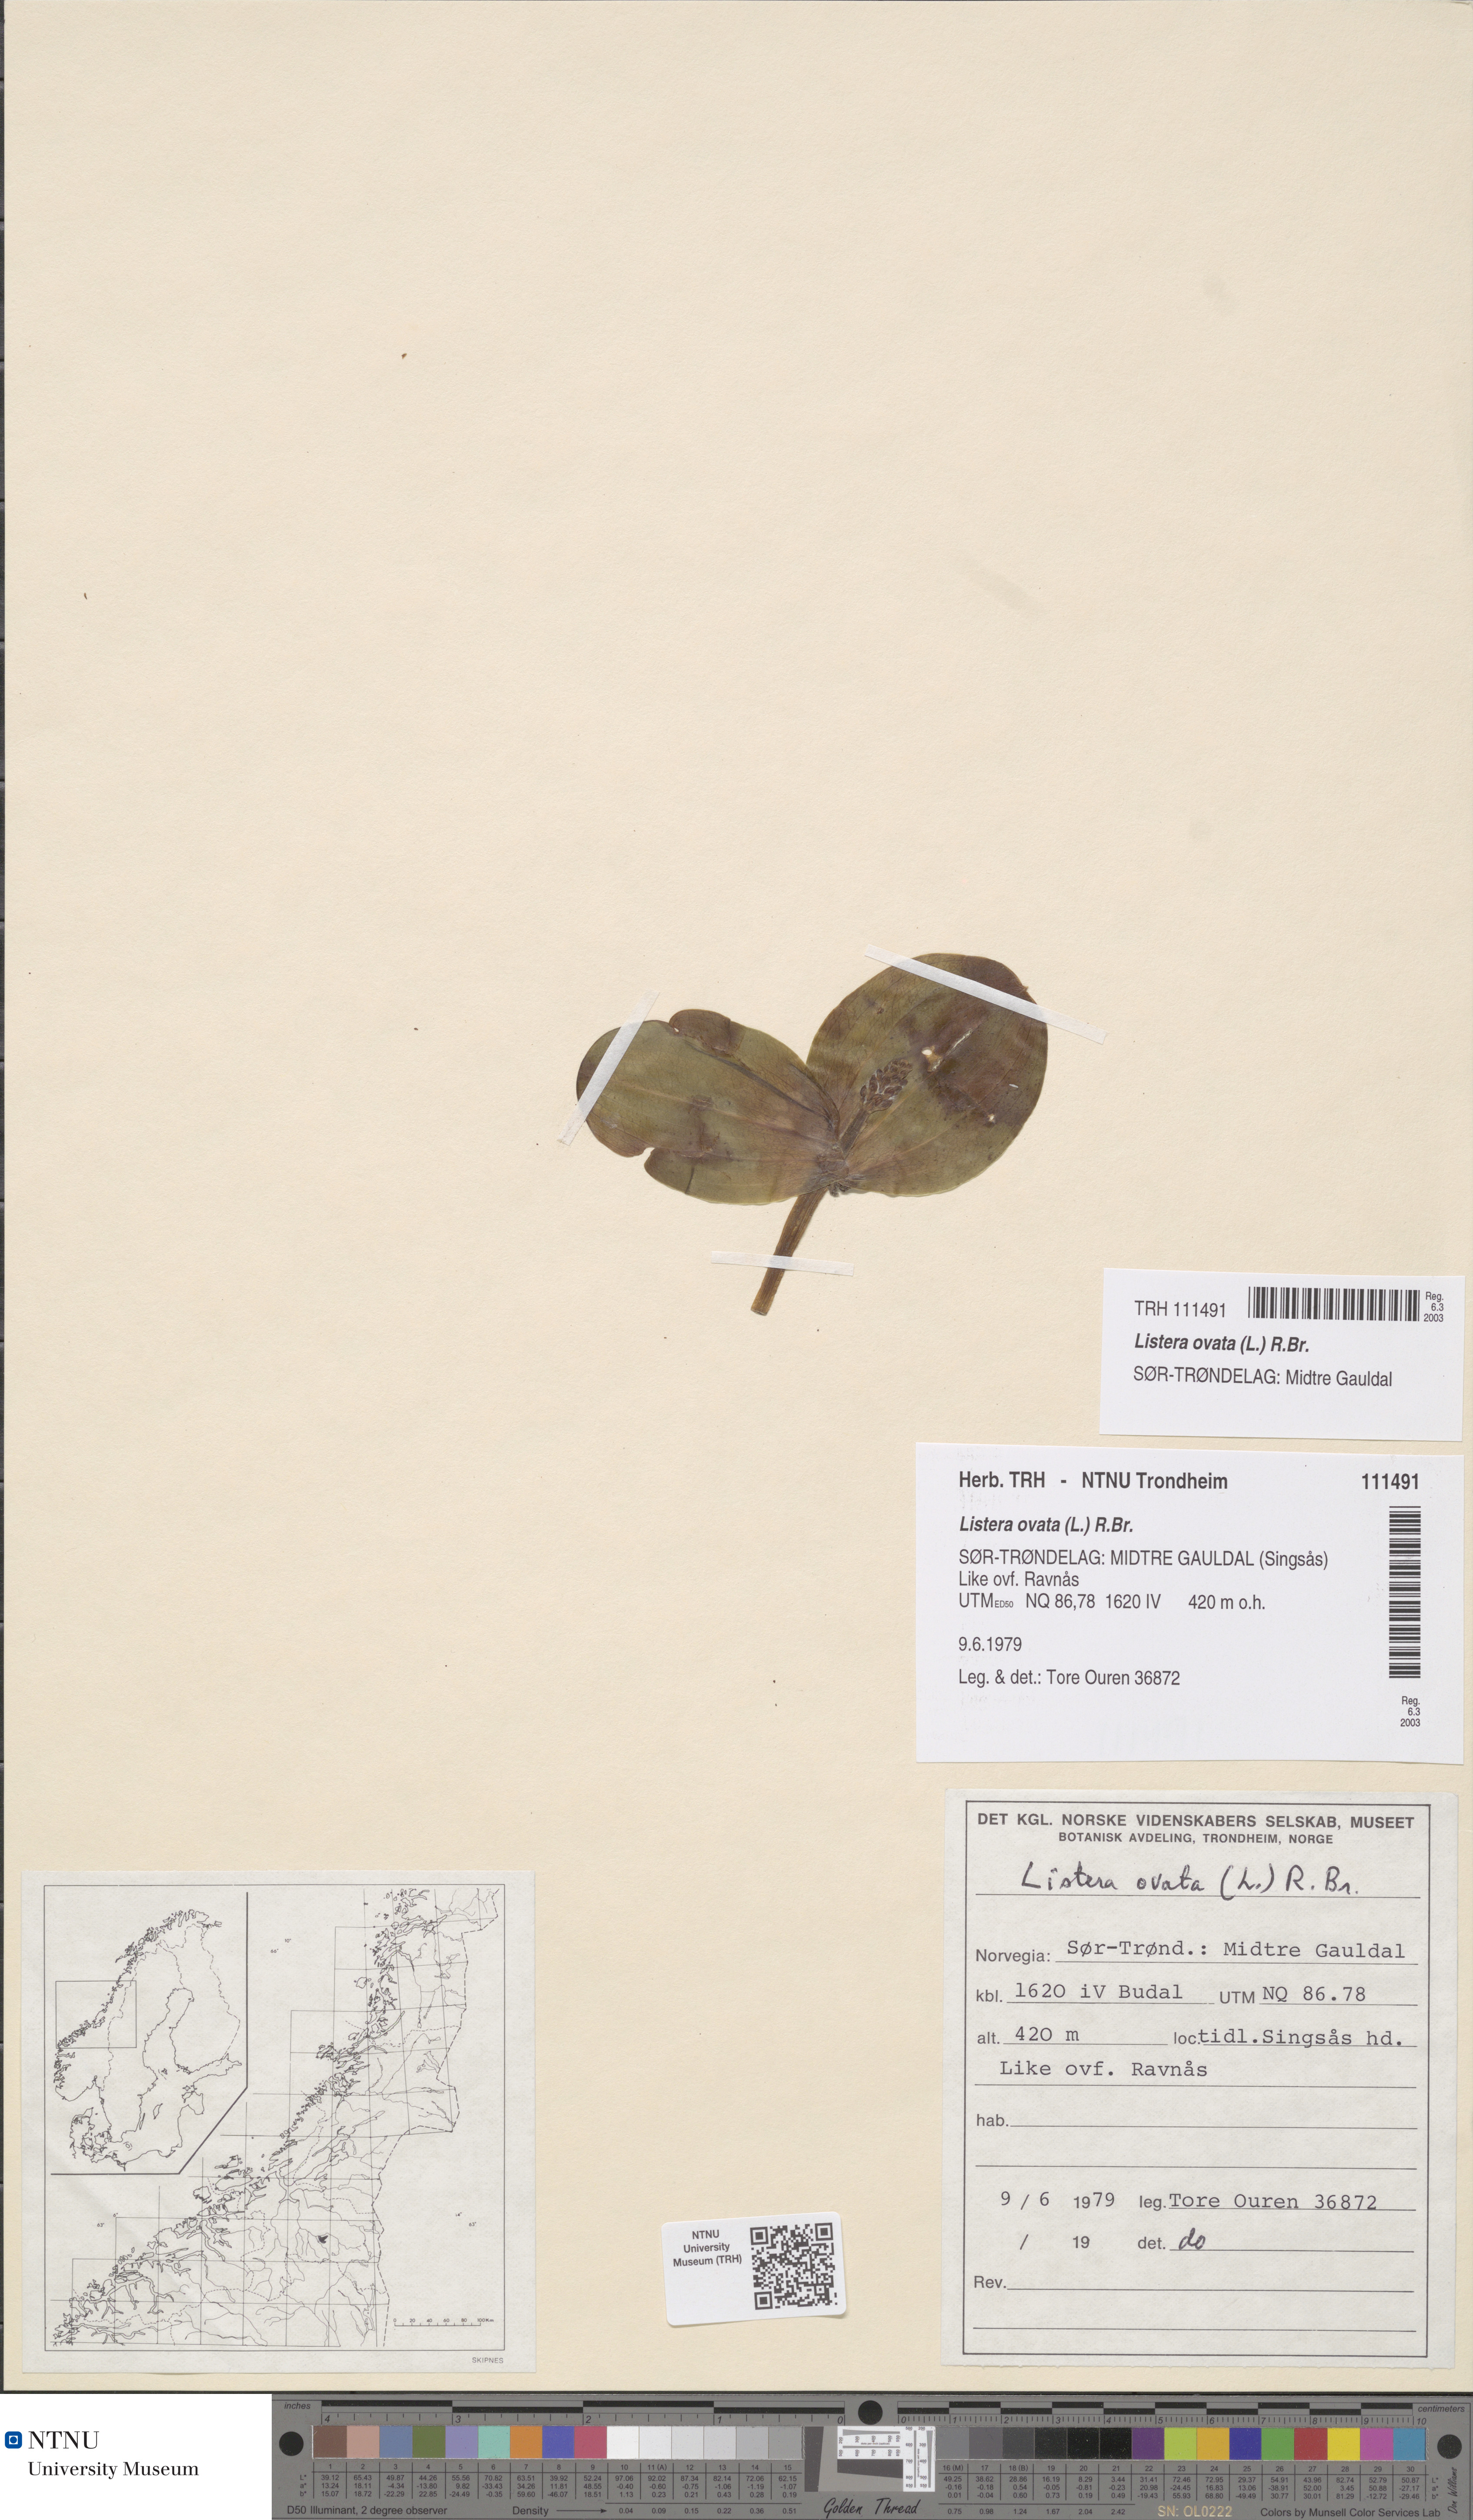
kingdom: Plantae
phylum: Tracheophyta
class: Liliopsida
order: Asparagales
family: Orchidaceae
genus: Neottia
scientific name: Neottia ovata
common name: Common twayblade
